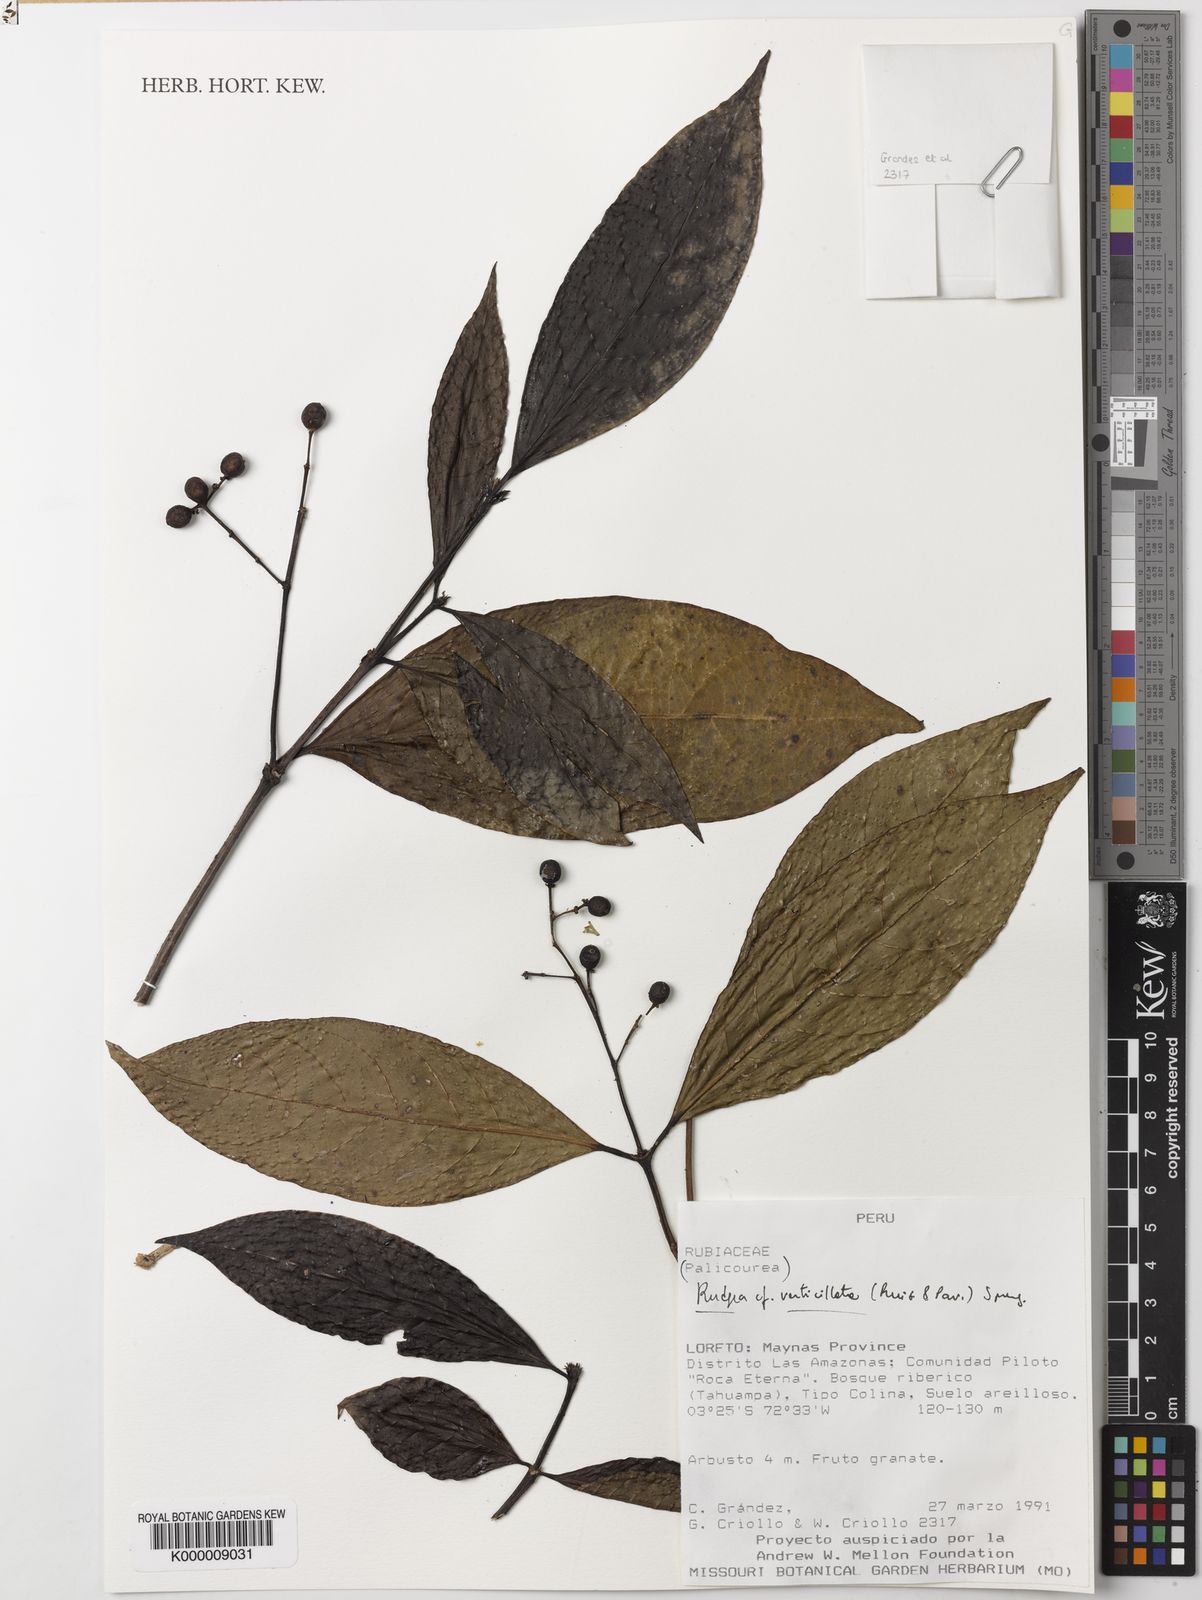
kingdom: Plantae
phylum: Tracheophyta
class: Magnoliopsida
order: Gentianales
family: Rubiaceae
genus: Rudgea
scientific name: Rudgea verticillata
